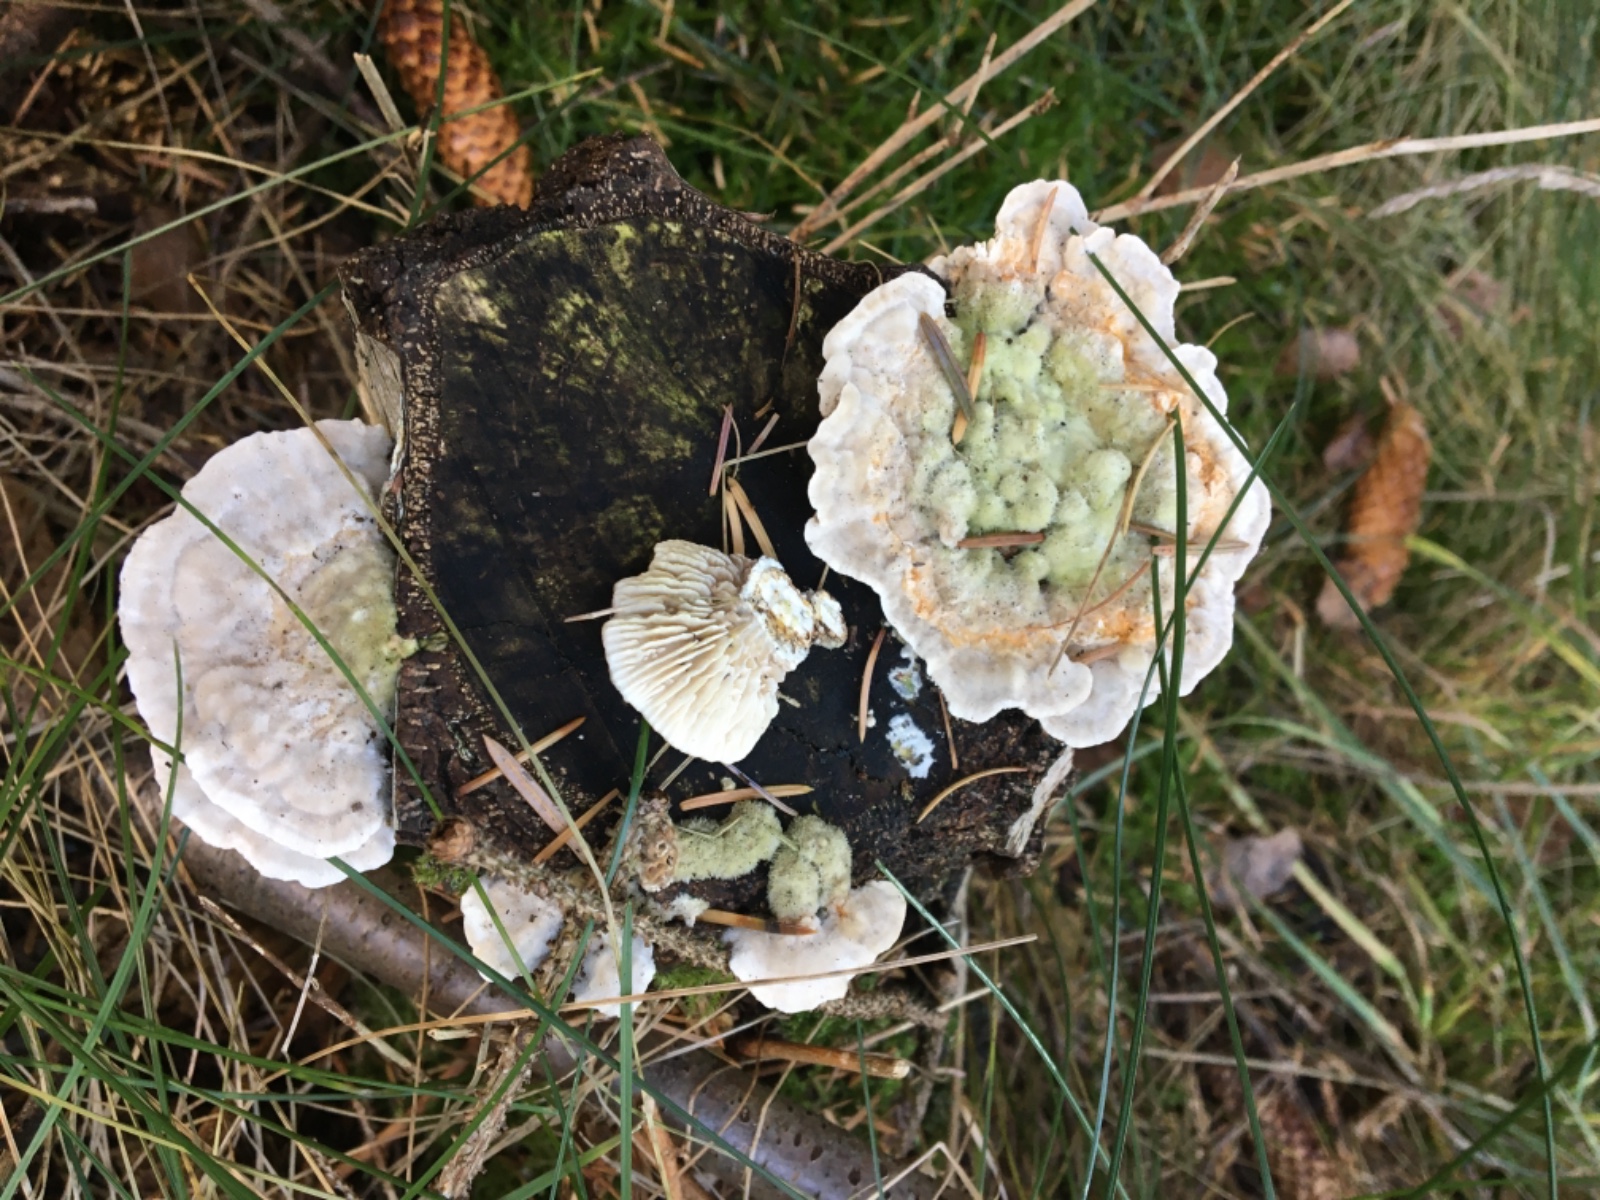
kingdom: Fungi
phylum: Basidiomycota
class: Agaricomycetes
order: Polyporales
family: Polyporaceae
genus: Lenzites
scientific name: Lenzites betulinus
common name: birke-læderporesvamp
